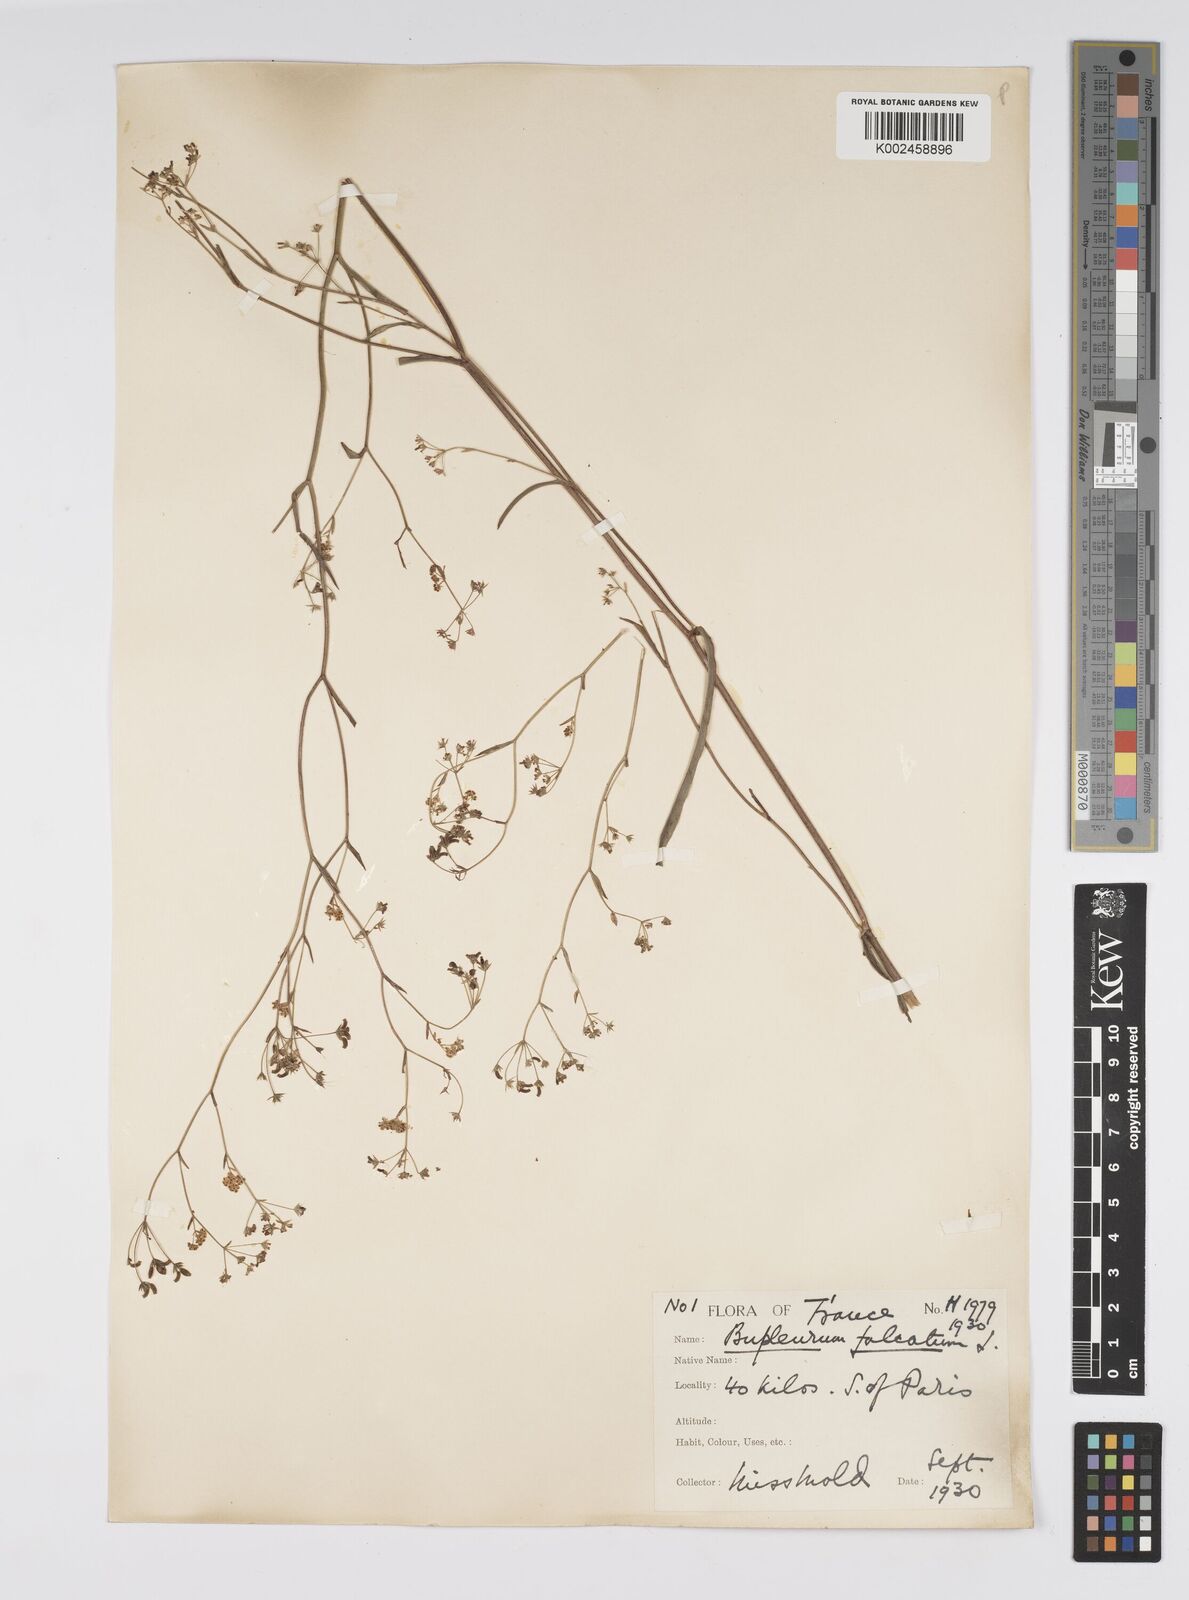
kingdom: Plantae
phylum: Tracheophyta
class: Magnoliopsida
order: Apiales
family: Apiaceae
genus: Bupleurum
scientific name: Bupleurum falcatum
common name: Sickle-leaved hare's-ear
